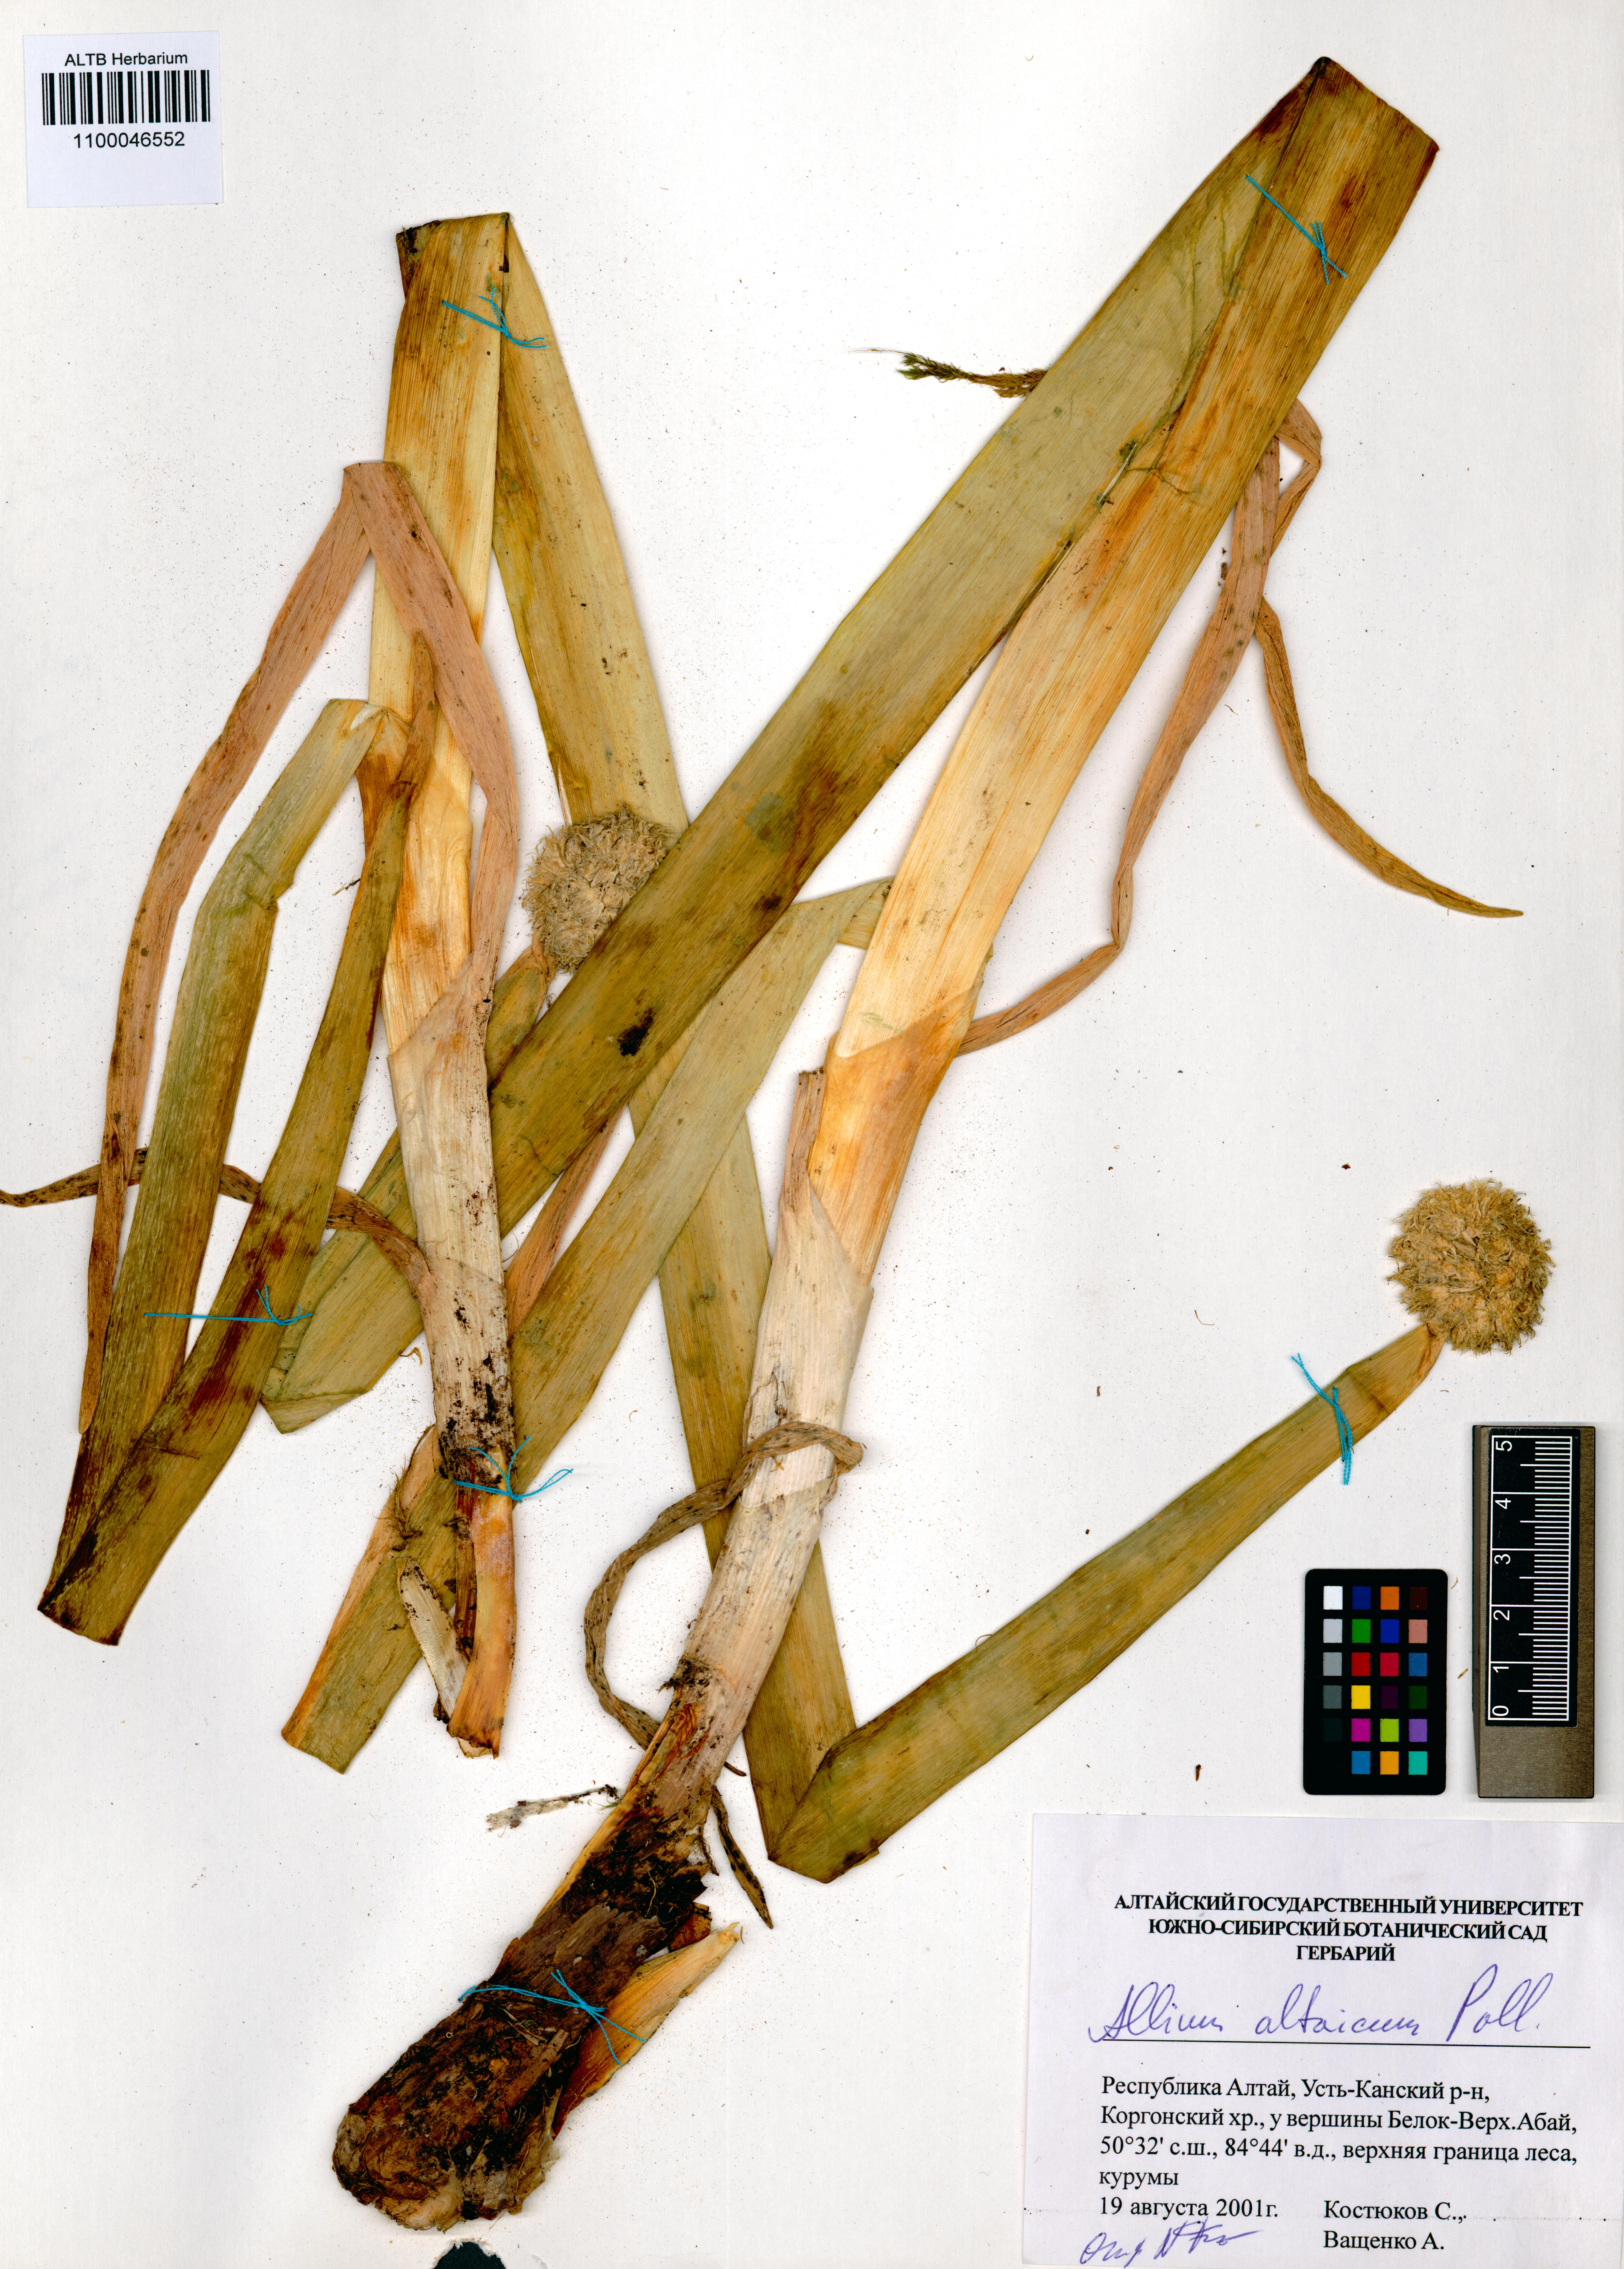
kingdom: Plantae
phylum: Tracheophyta
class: Liliopsida
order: Asparagales
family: Amaryllidaceae
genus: Allium
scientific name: Allium altaicum
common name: Altai onion
